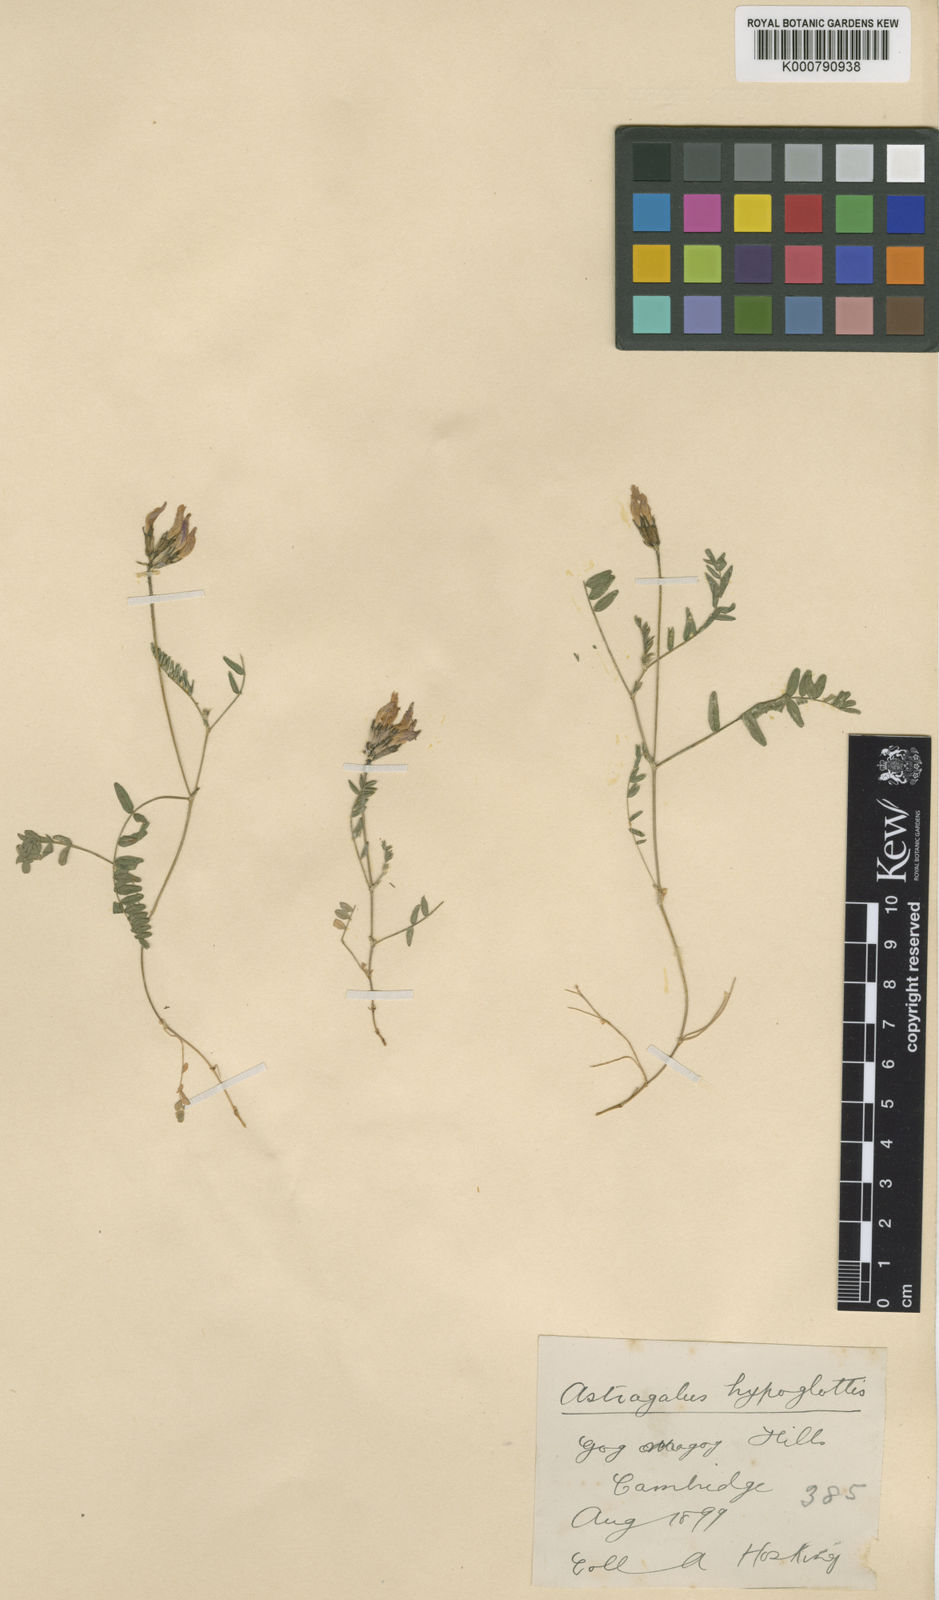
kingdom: Plantae
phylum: Tracheophyta
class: Magnoliopsida
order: Fabales
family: Fabaceae
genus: Astragalus
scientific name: Astragalus danicus
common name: Purple milk-vetch
